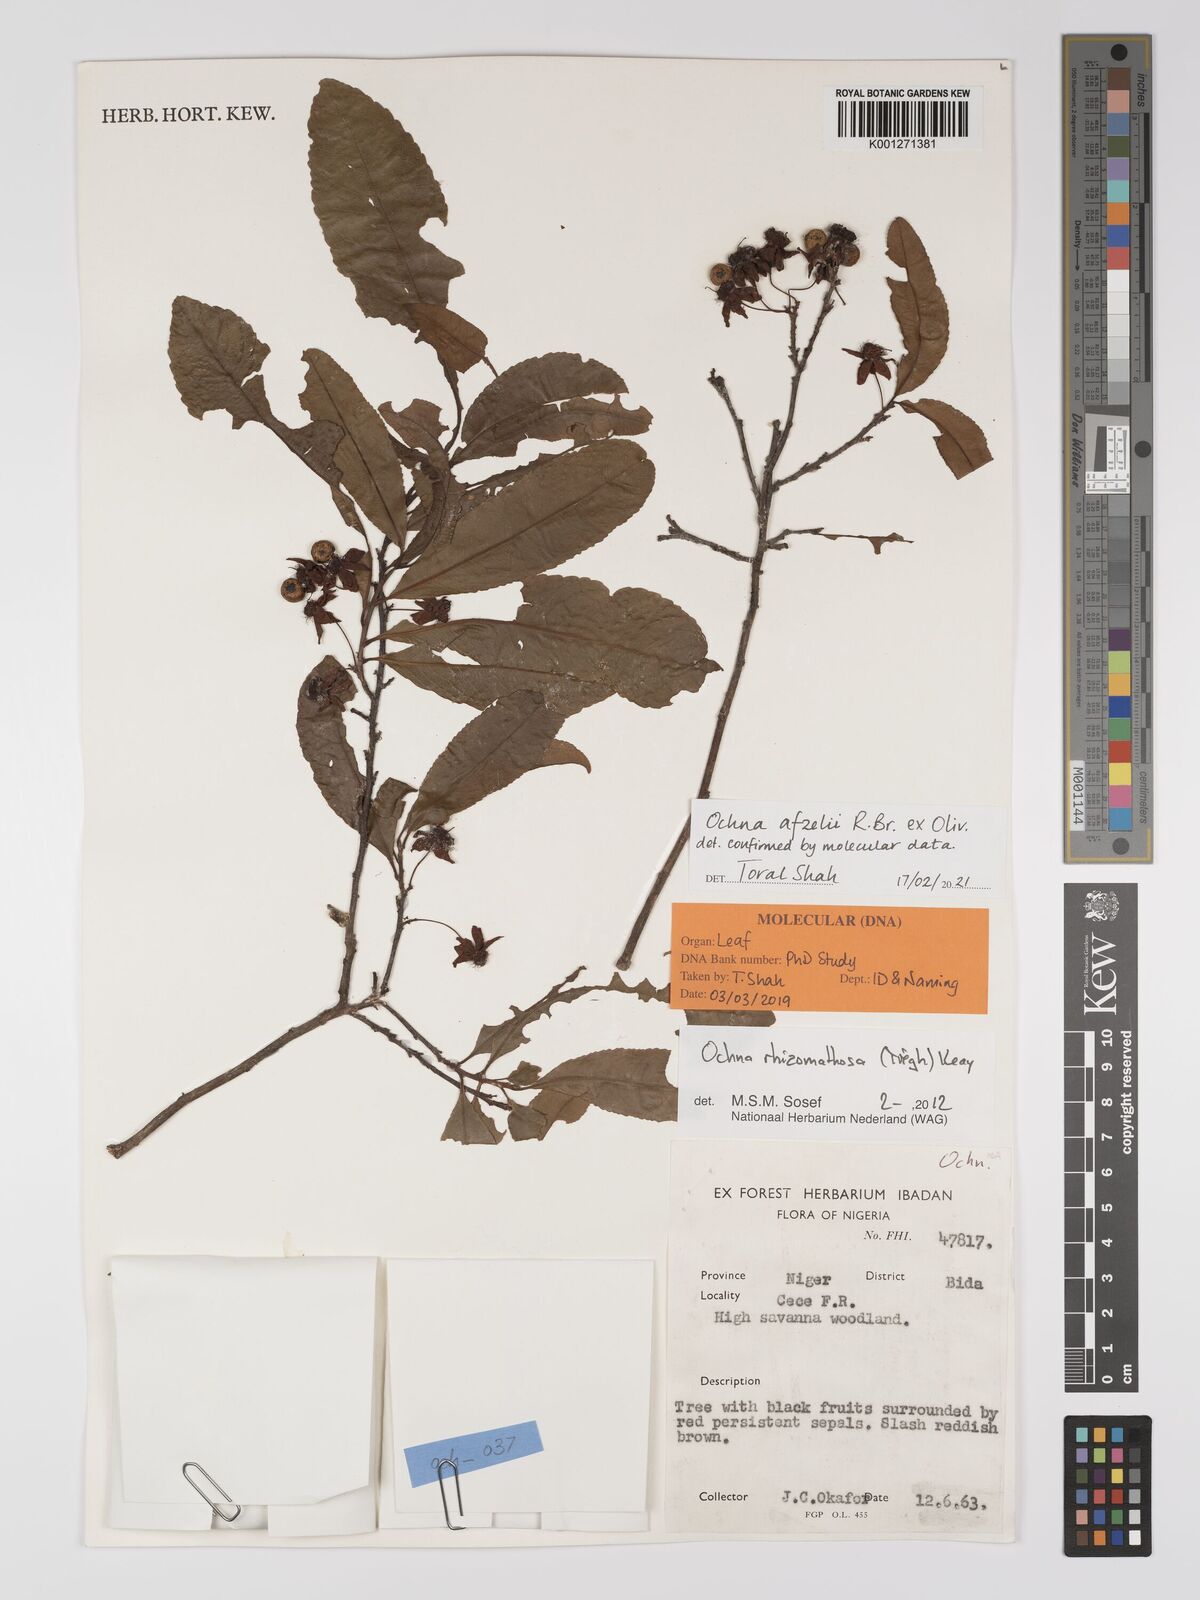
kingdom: Plantae
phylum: Tracheophyta
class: Magnoliopsida
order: Malpighiales
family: Ochnaceae
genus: Ochna
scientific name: Ochna afzelii
